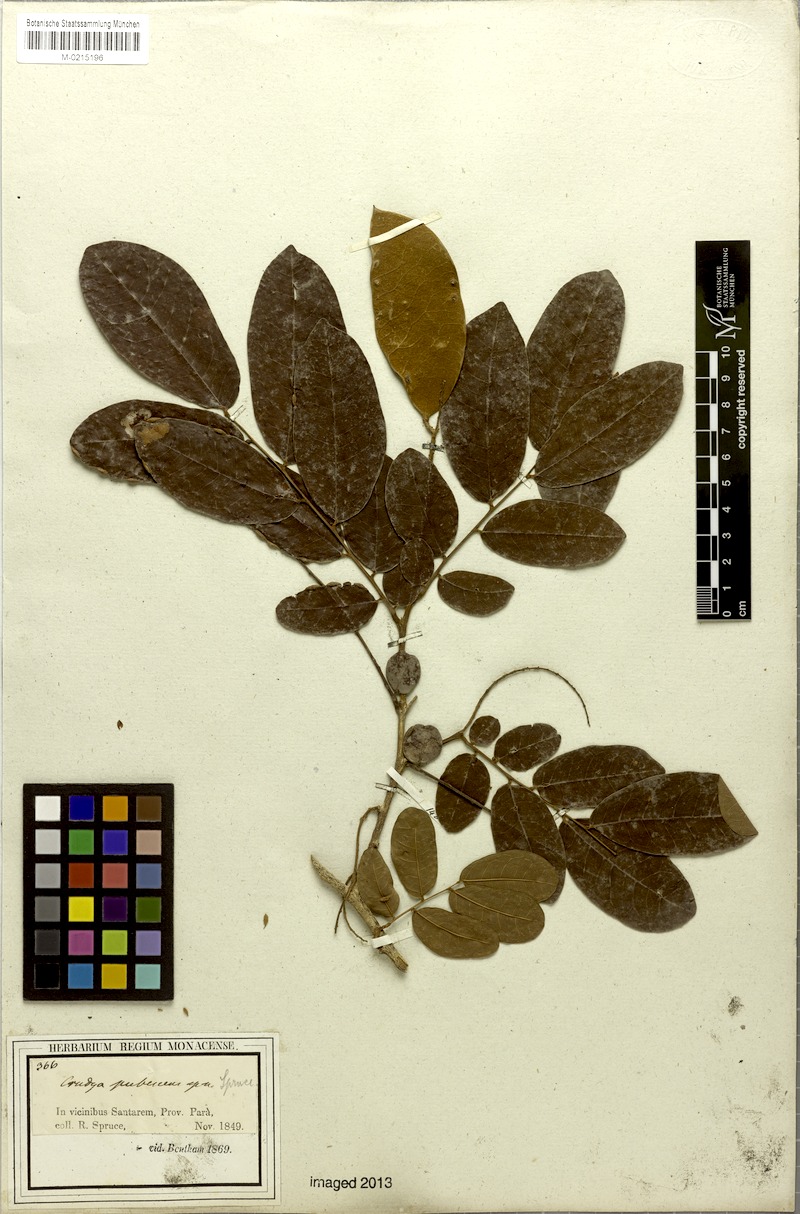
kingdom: Plantae
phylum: Tracheophyta
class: Magnoliopsida
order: Fabales
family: Fabaceae
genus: Crudia
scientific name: Crudia oblonga
